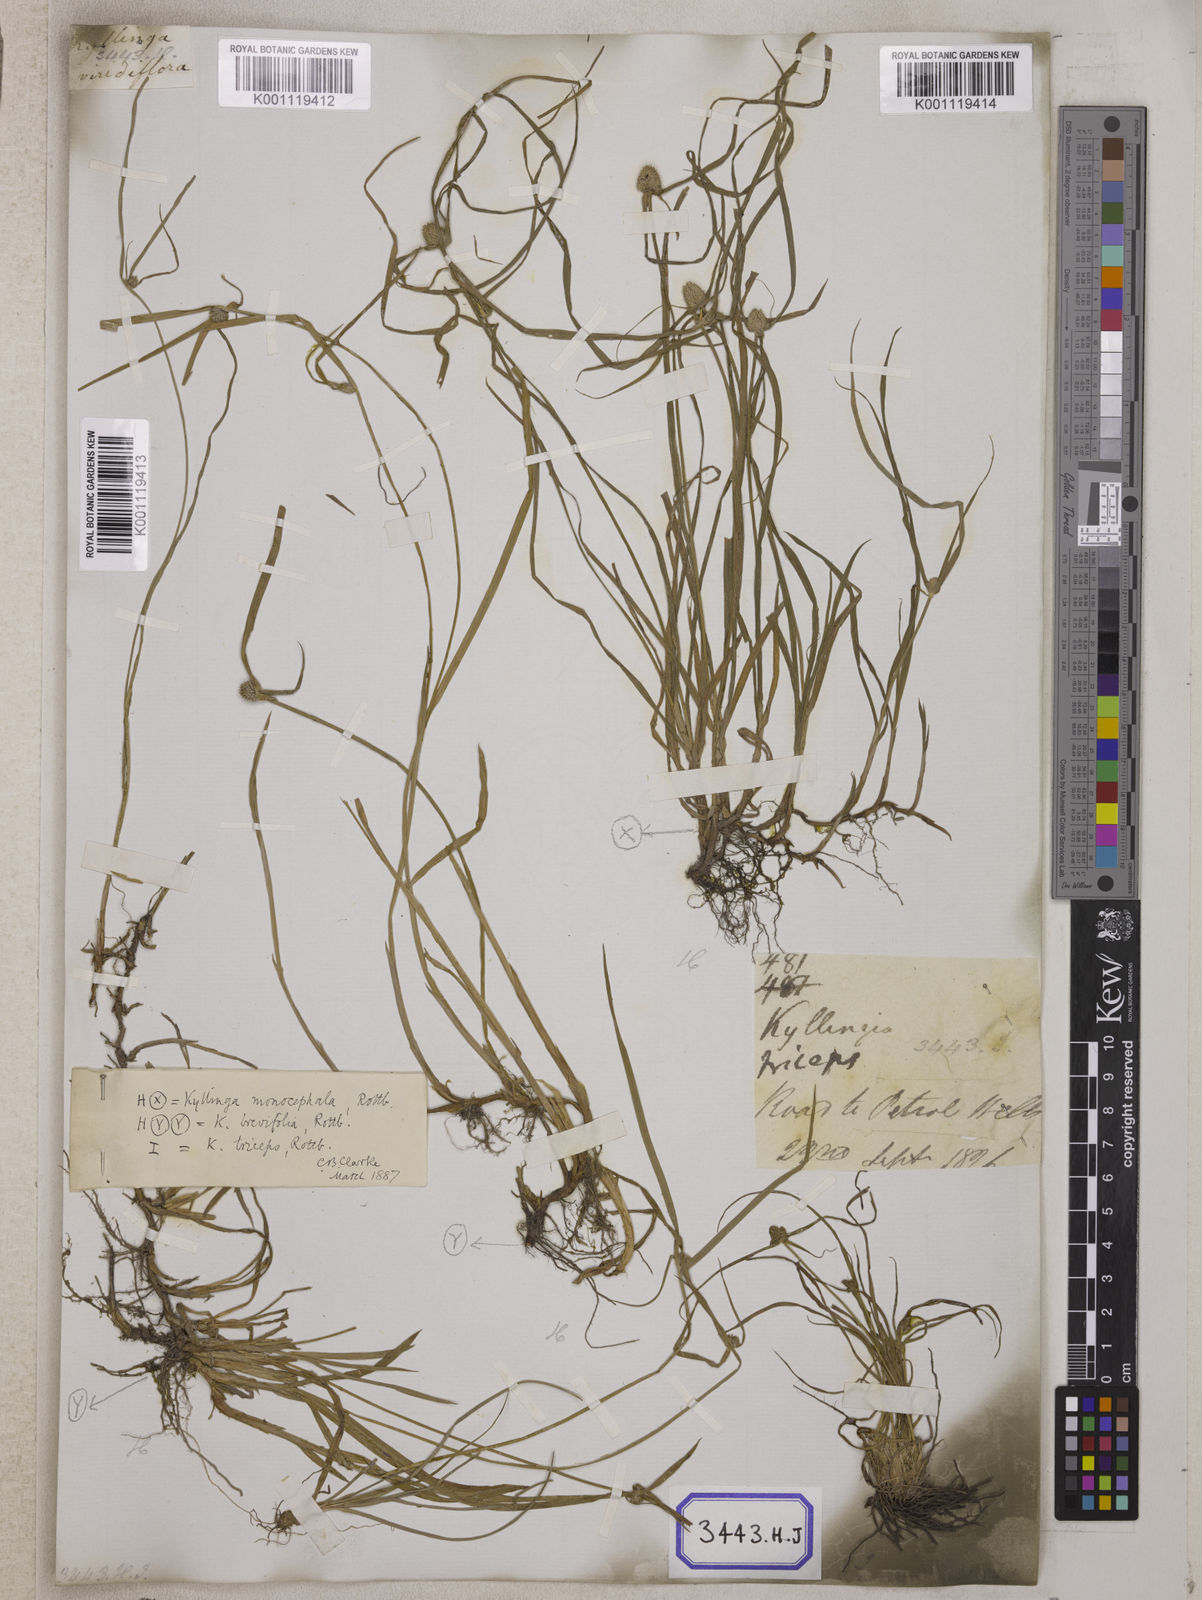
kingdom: Plantae
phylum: Tracheophyta
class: Liliopsida
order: Poales
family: Cyperaceae
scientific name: Cyperaceae
